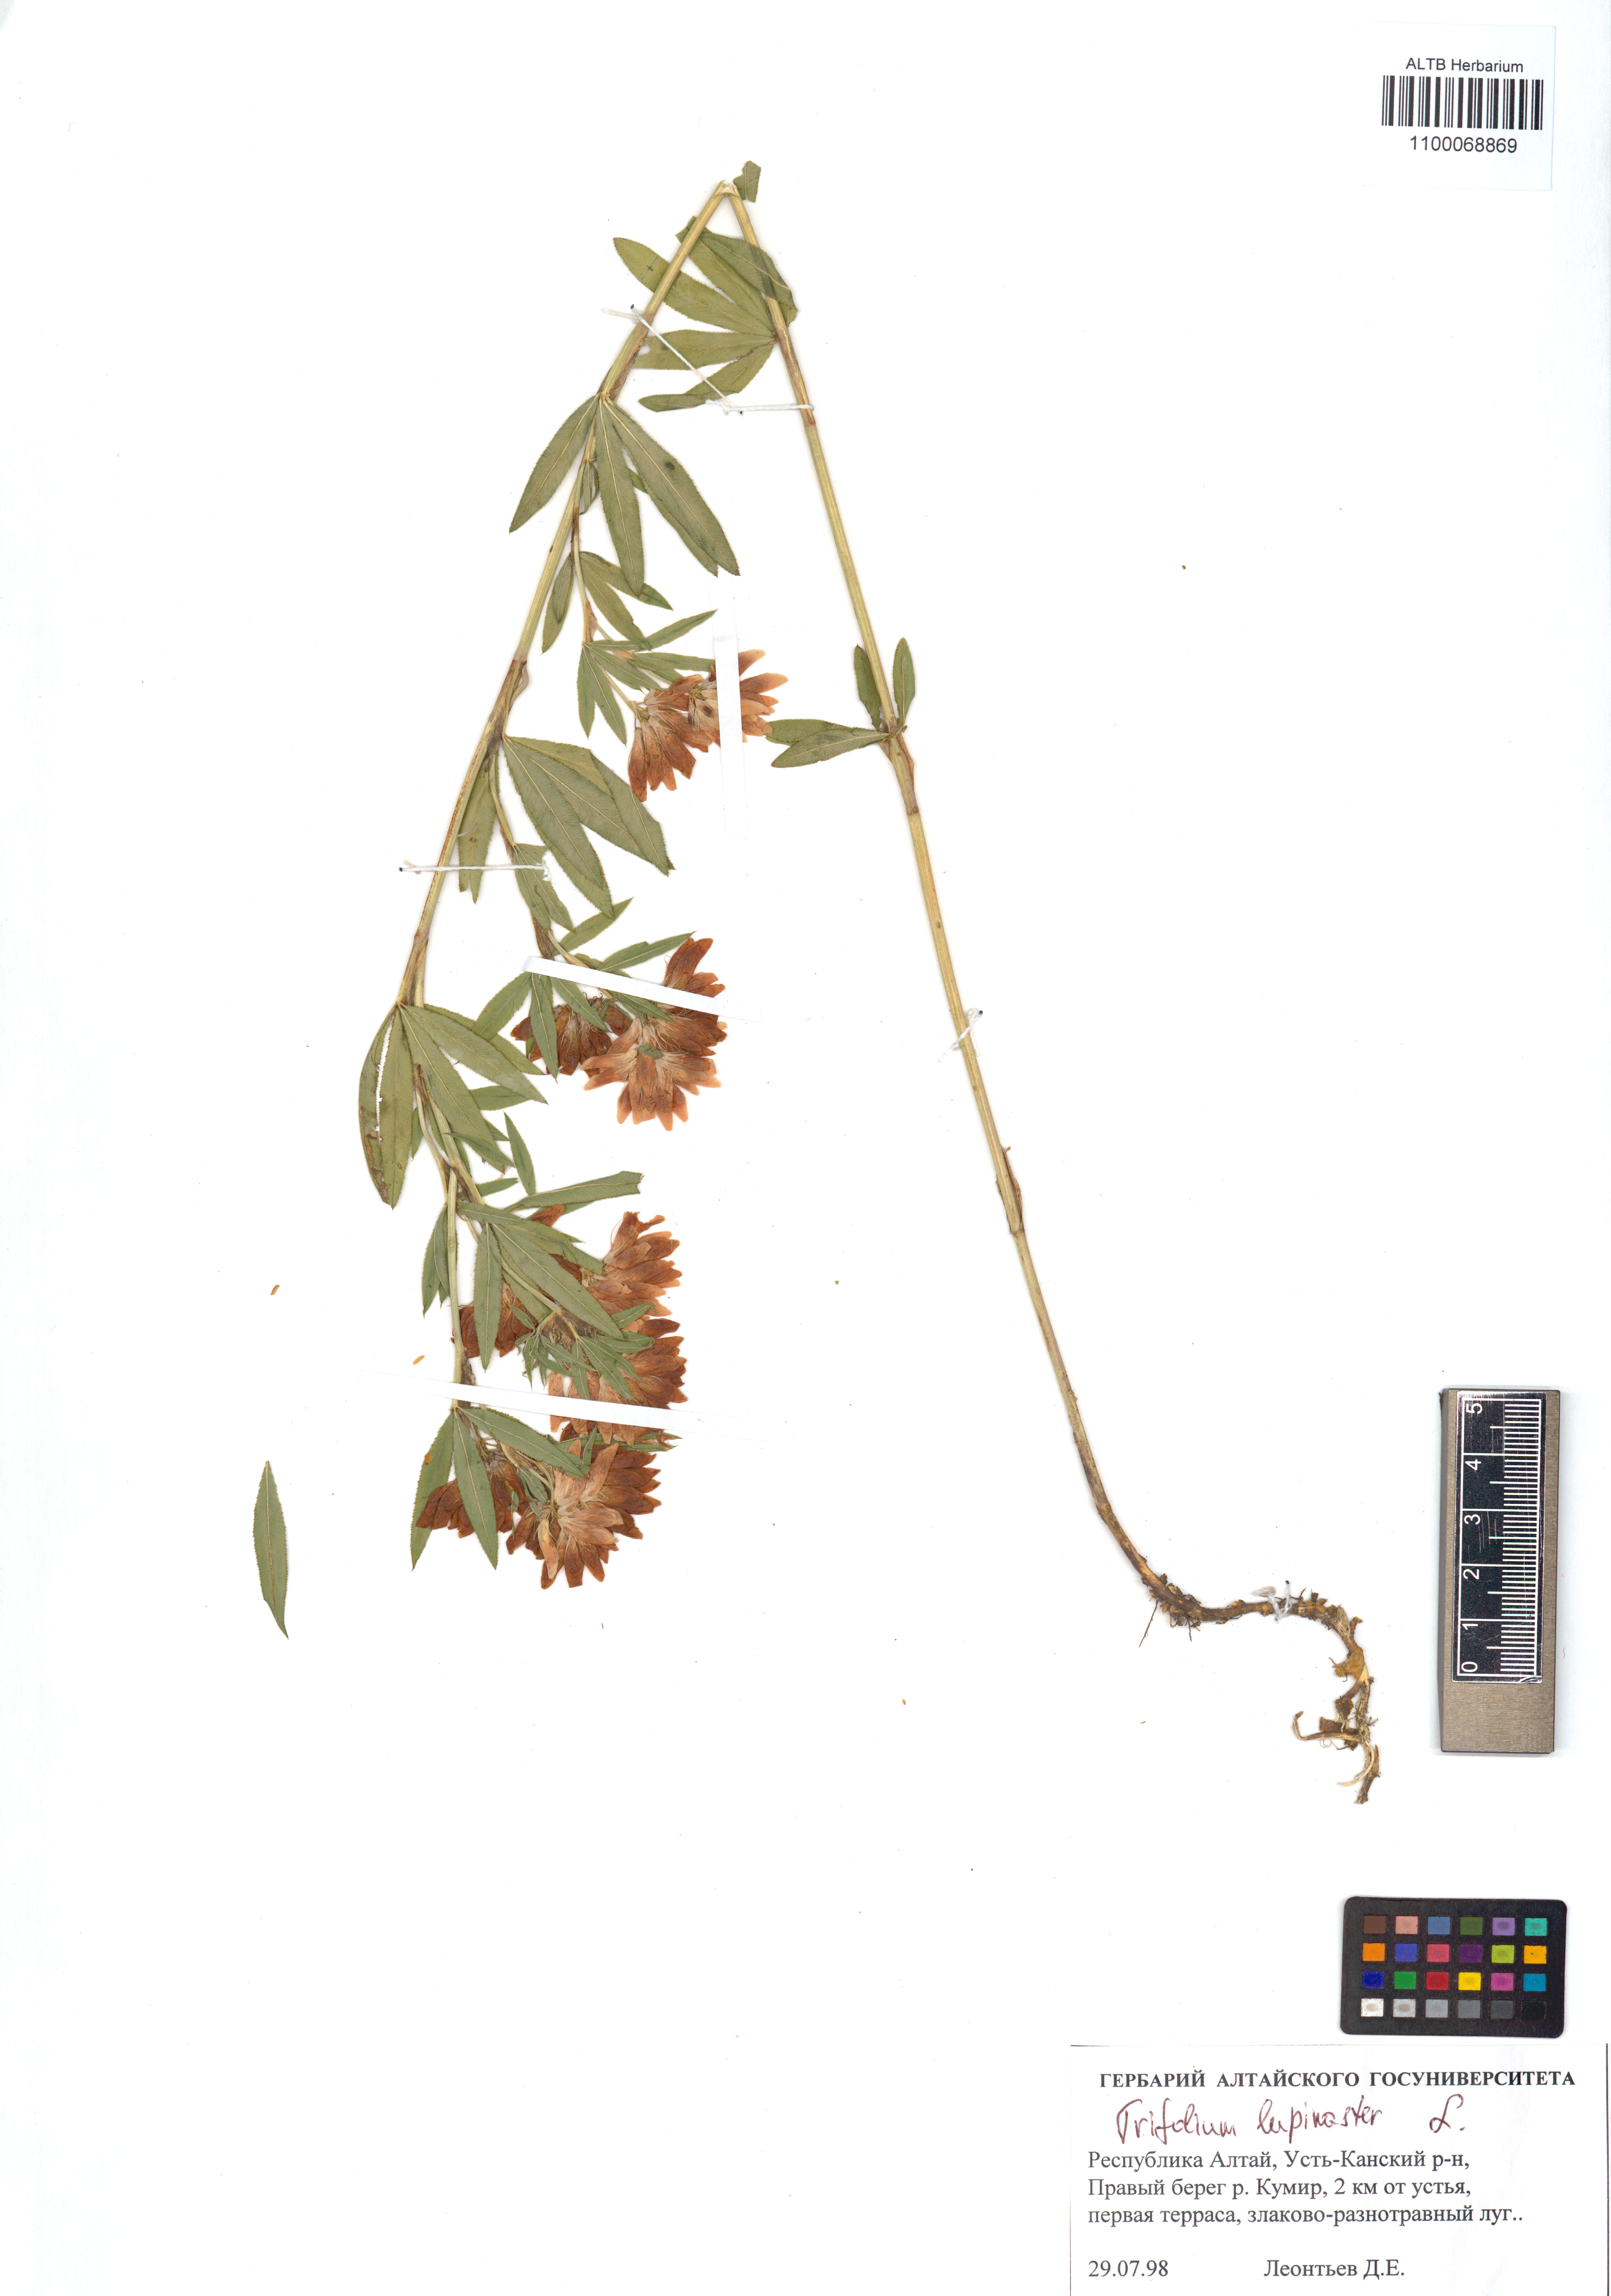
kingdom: Plantae
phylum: Tracheophyta
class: Magnoliopsida
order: Fabales
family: Fabaceae
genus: Trifolium
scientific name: Trifolium lupinaster
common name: Lupine clover
